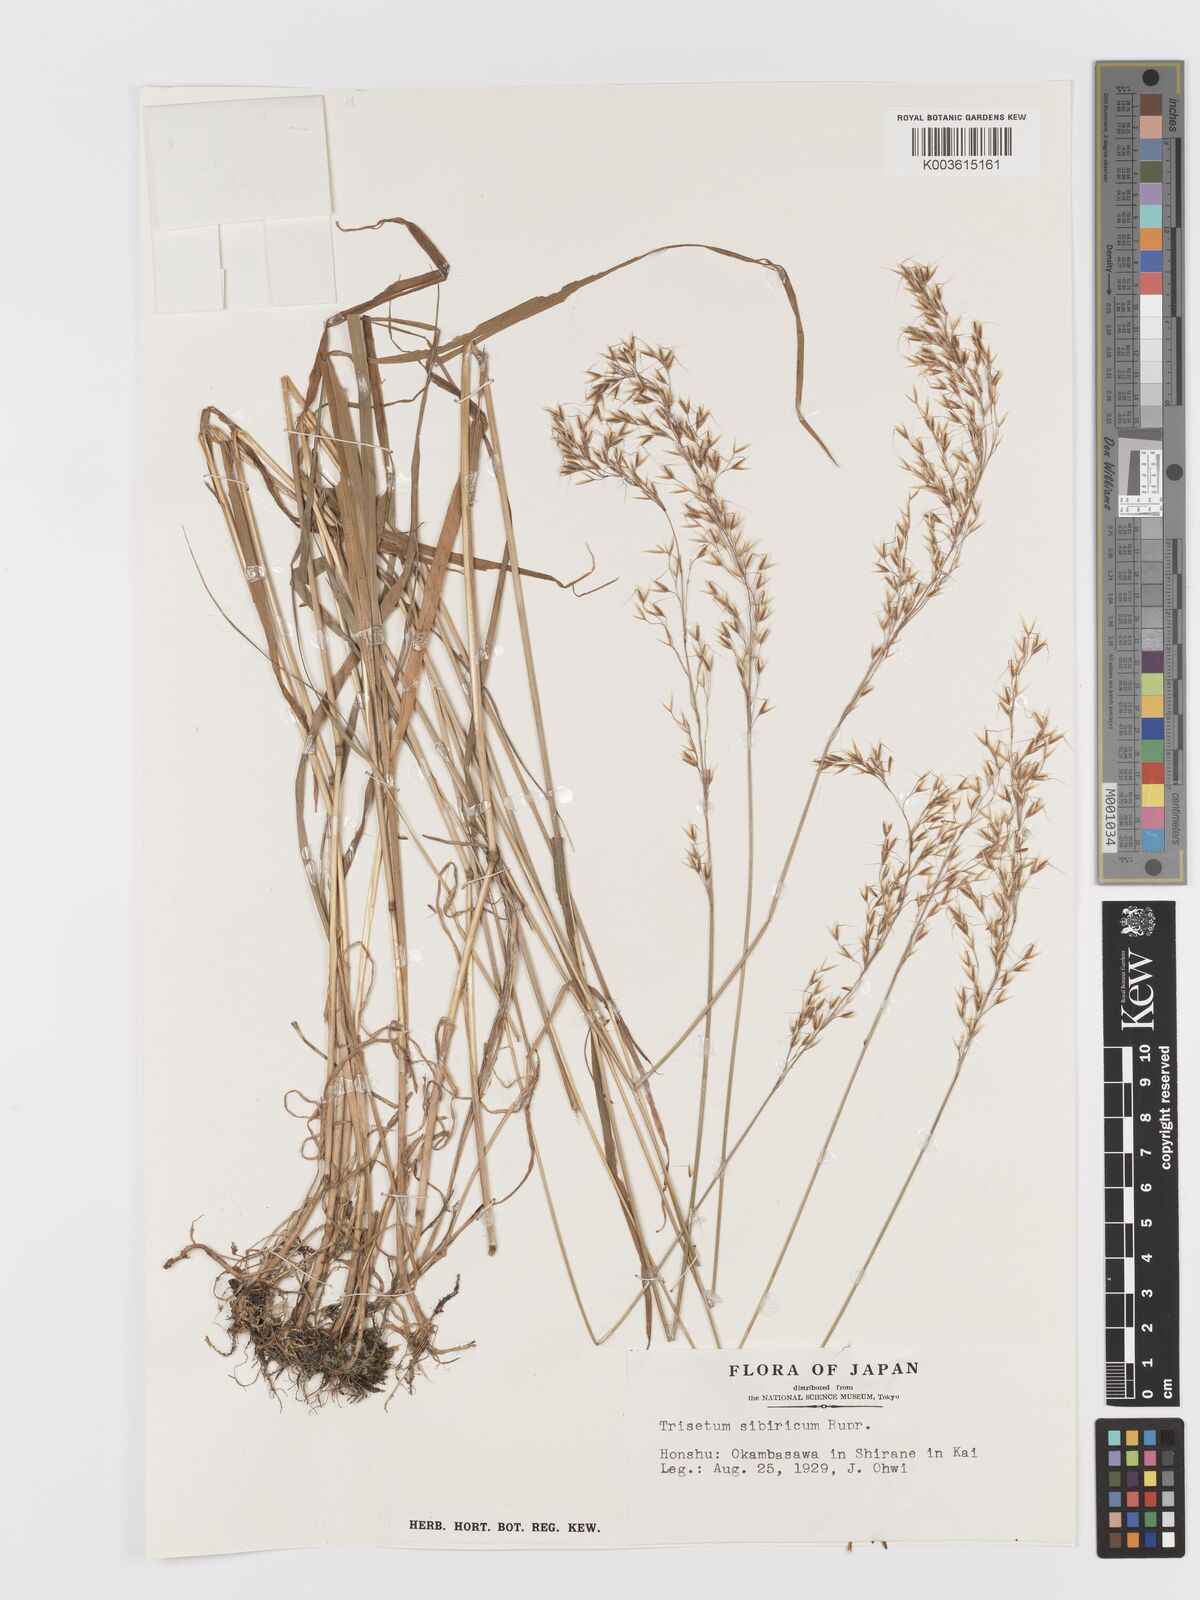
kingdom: Plantae
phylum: Tracheophyta
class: Liliopsida
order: Poales
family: Poaceae
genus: Sibirotrisetum
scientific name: Sibirotrisetum sibiricum
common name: Siberian false oat
